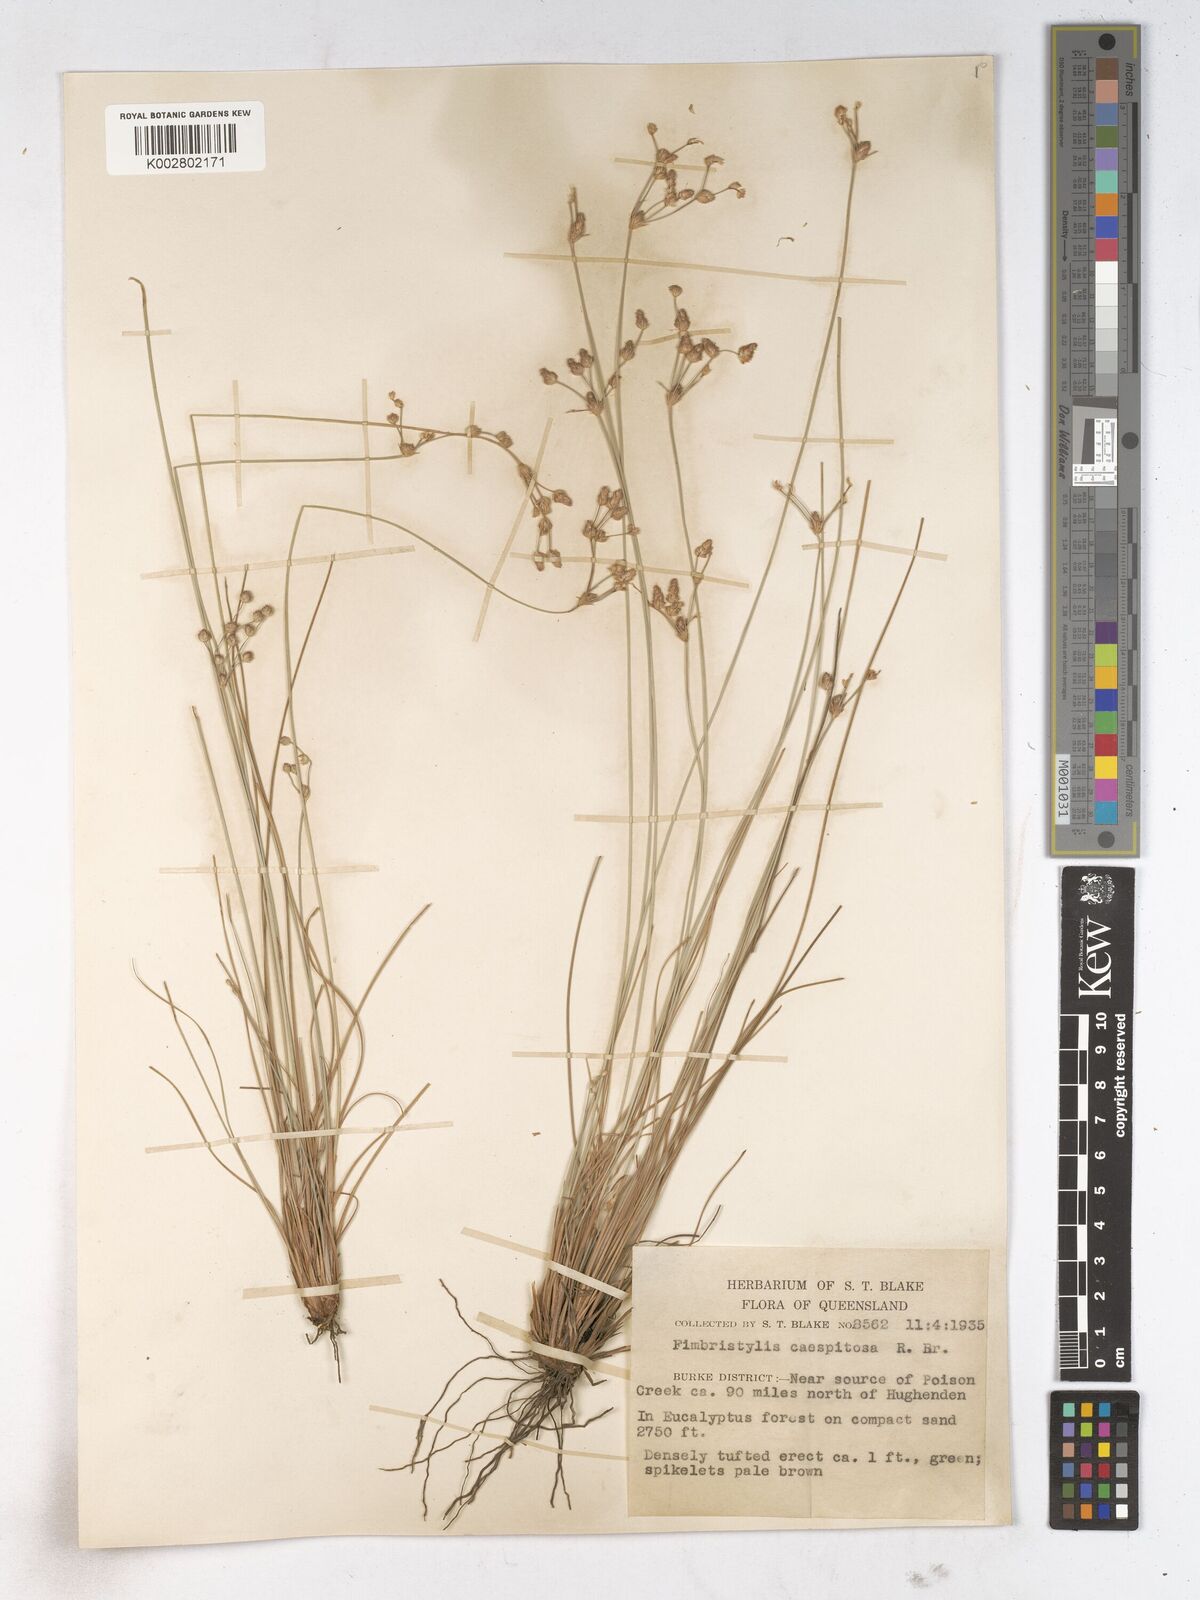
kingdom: Plantae
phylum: Tracheophyta
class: Liliopsida
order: Poales
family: Cyperaceae
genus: Fimbristylis
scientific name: Fimbristylis caespitosa
